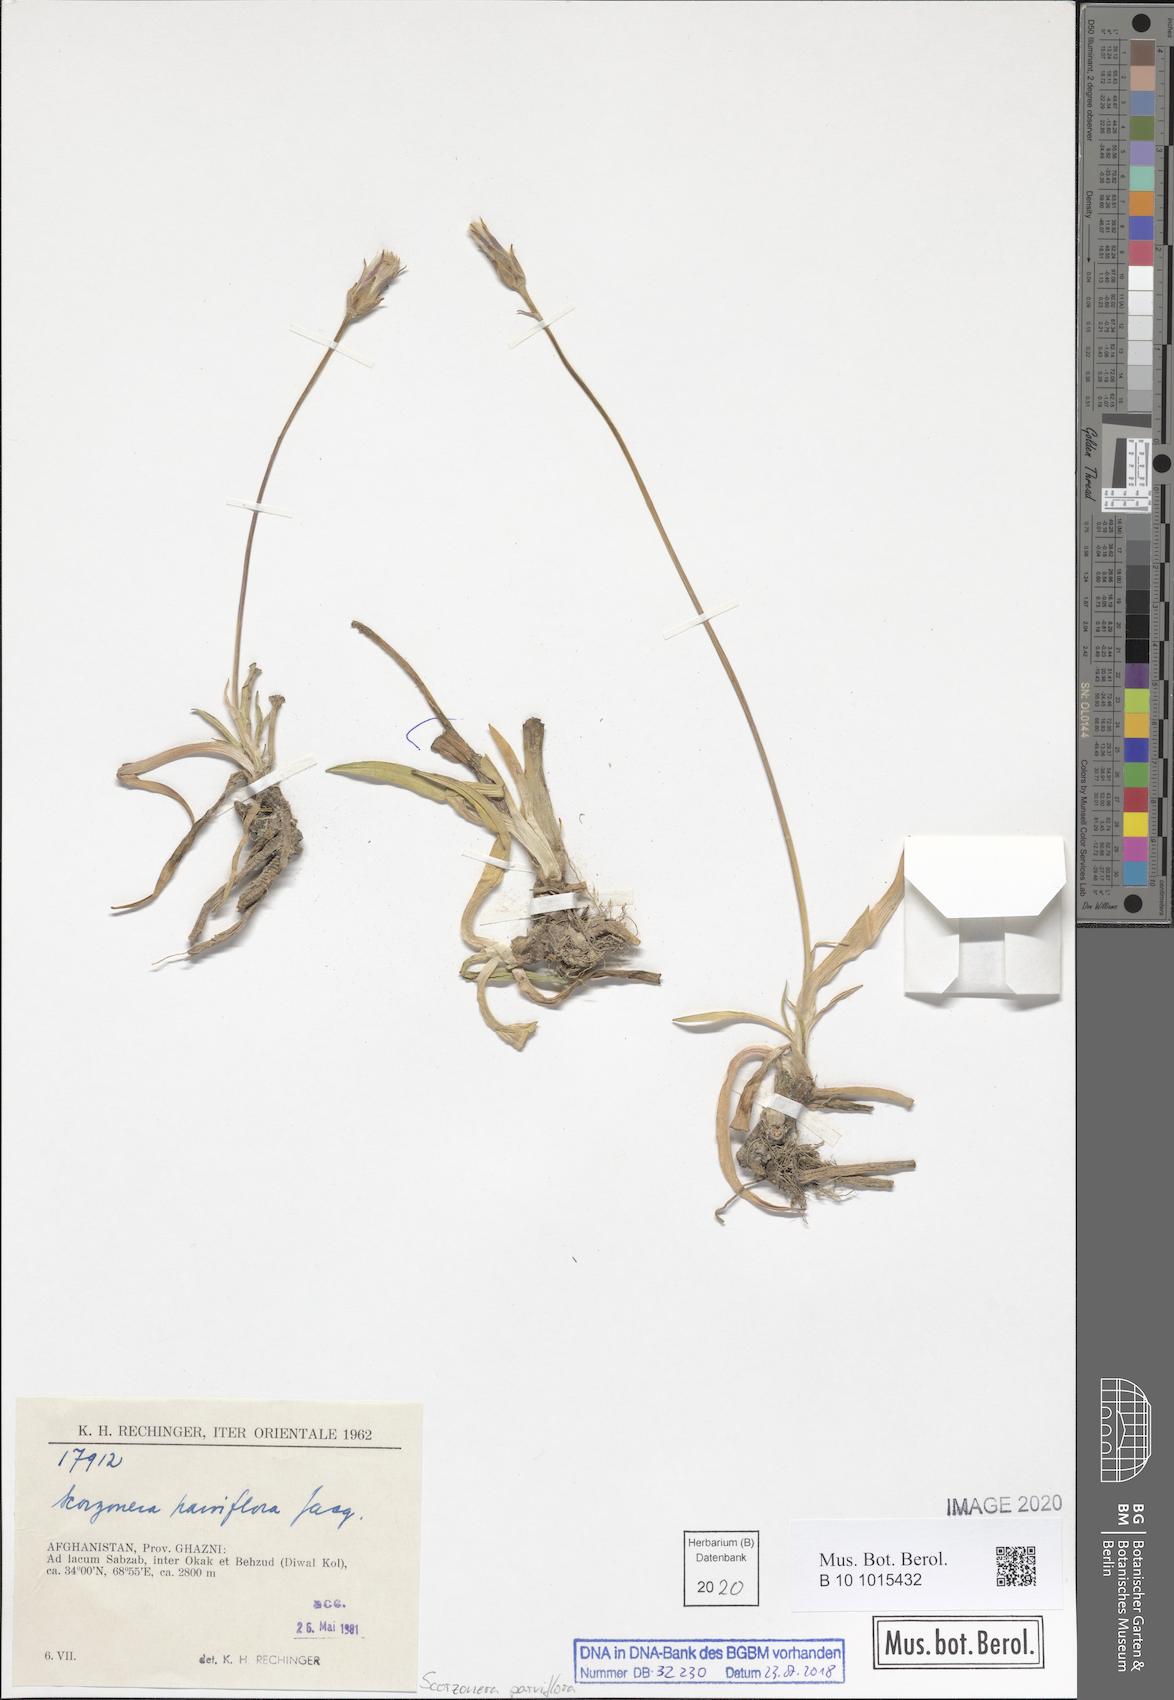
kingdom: Plantae
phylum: Tracheophyta
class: Magnoliopsida
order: Asterales
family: Asteraceae
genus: Scorzonera
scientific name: Scorzonera parviflora
